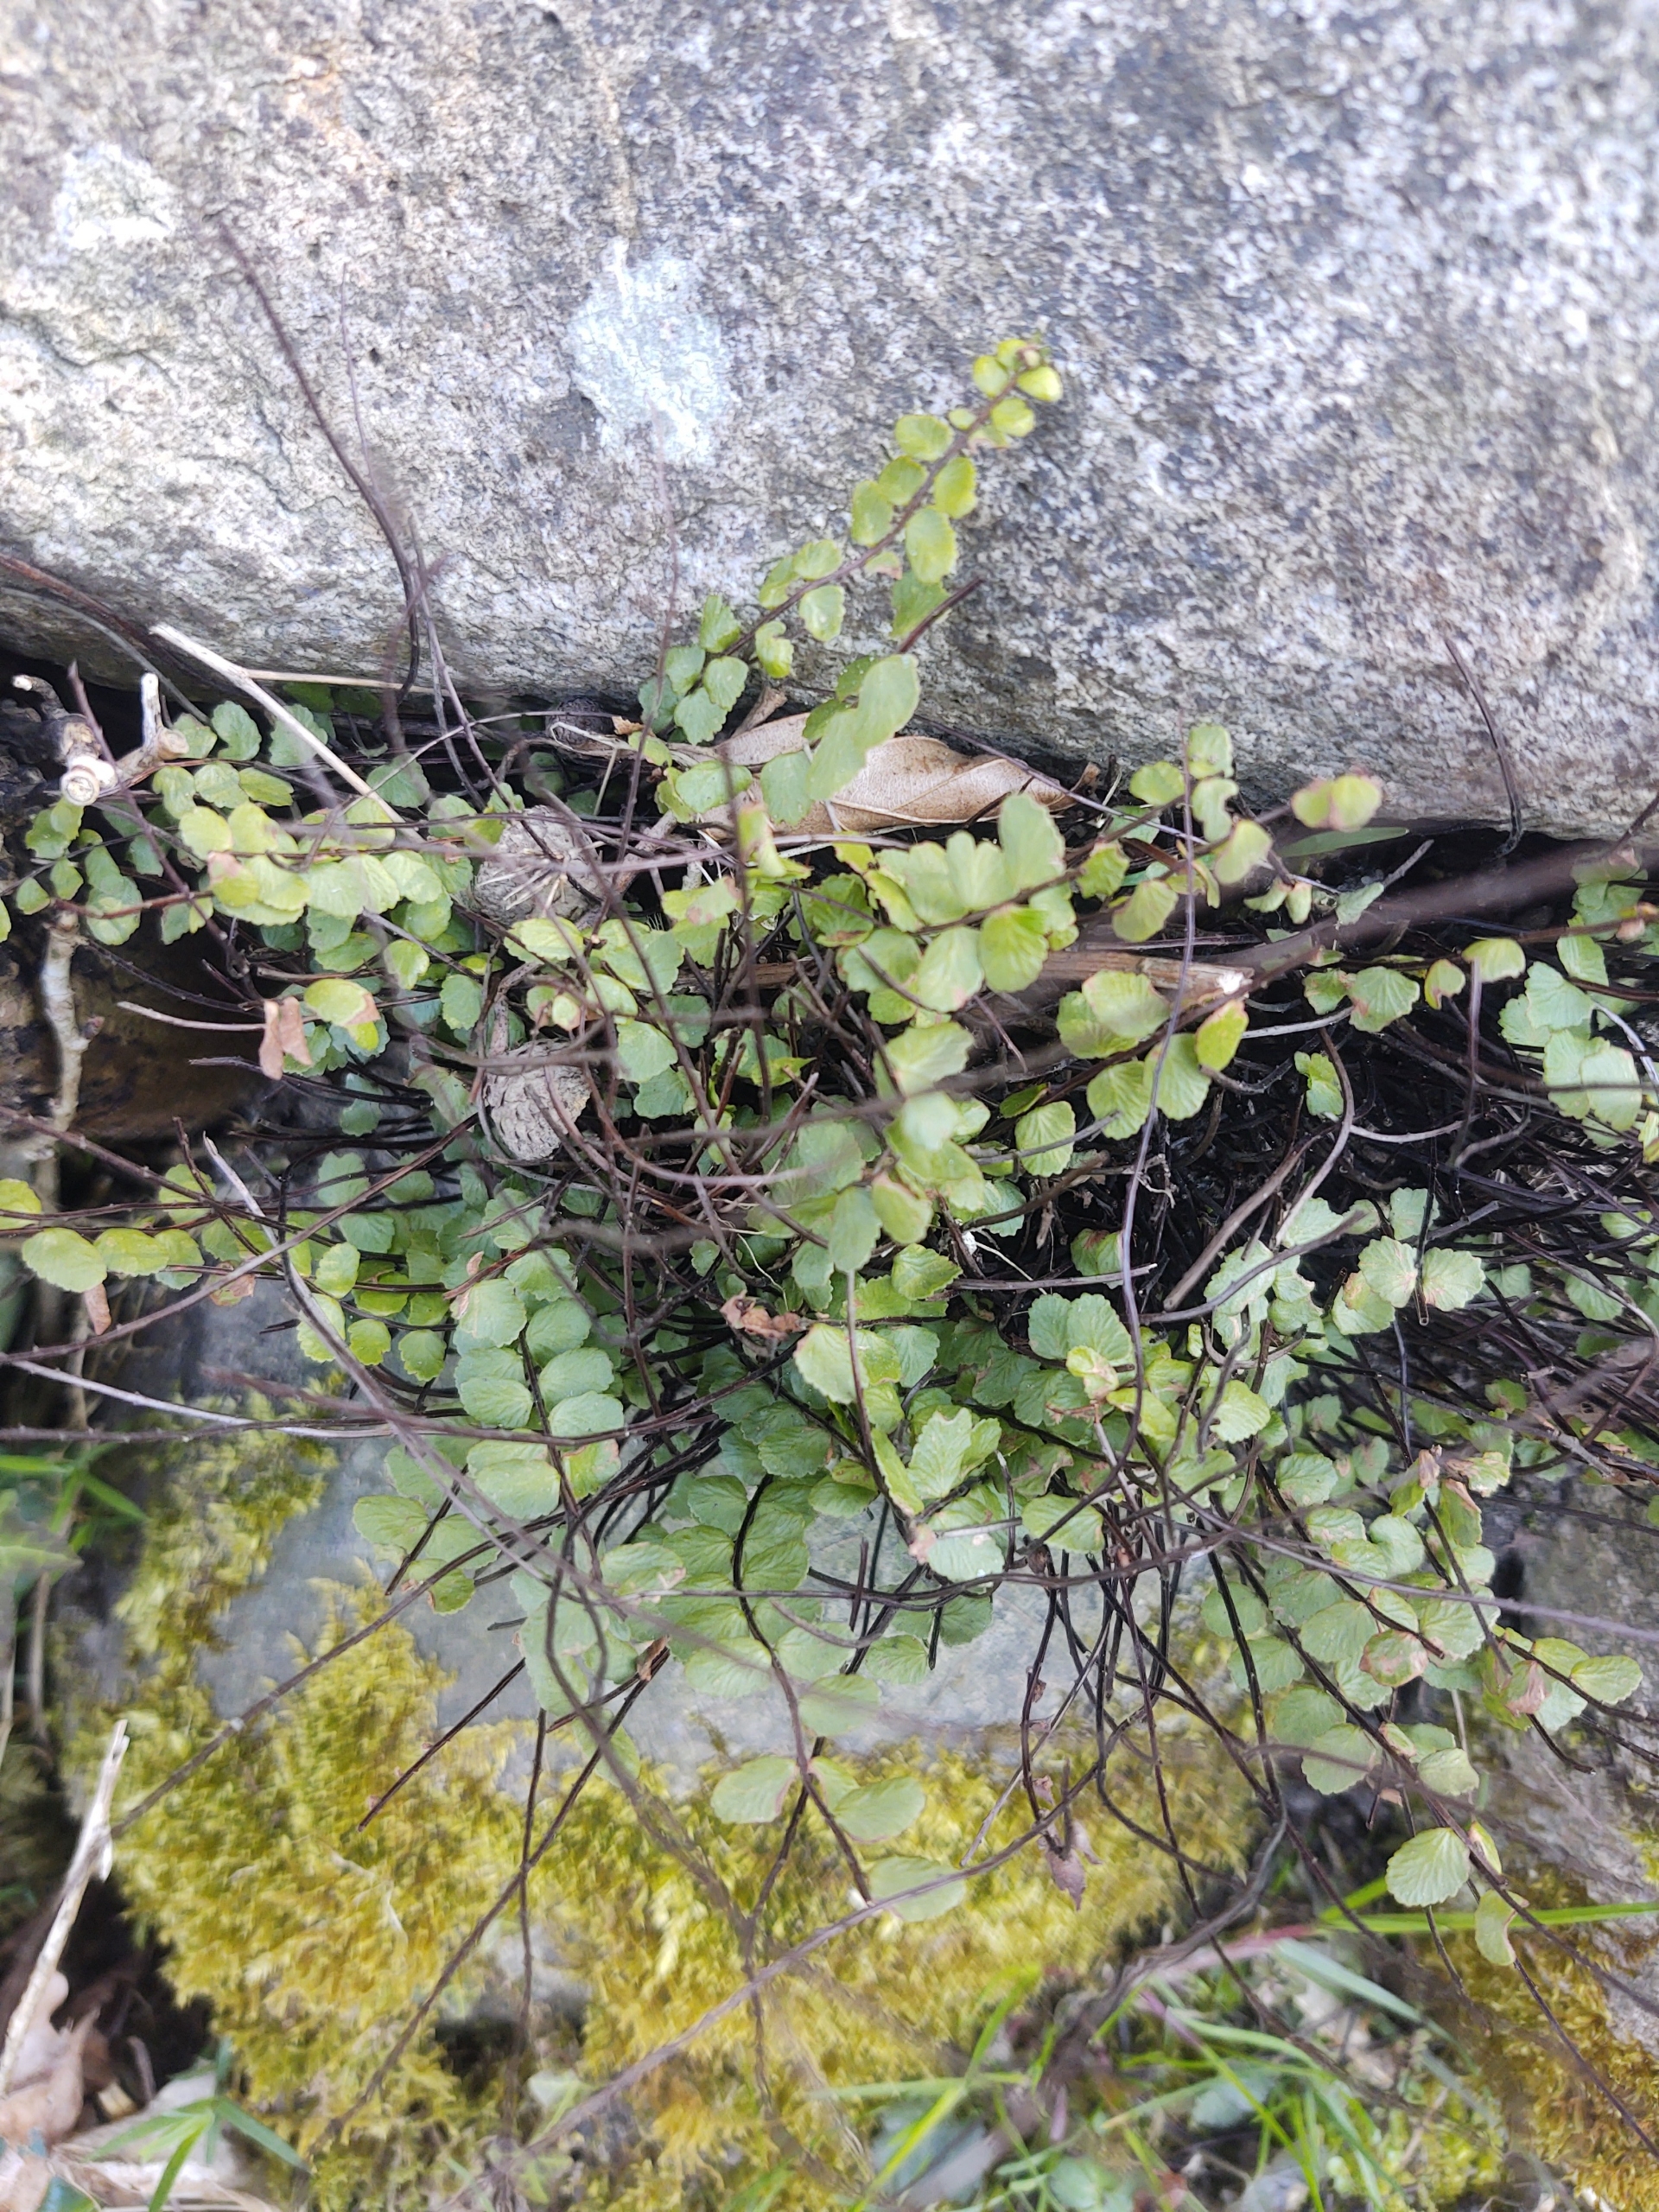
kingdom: Plantae
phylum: Tracheophyta
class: Polypodiopsida
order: Polypodiales
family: Aspleniaceae
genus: Asplenium
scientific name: Asplenium quadrivalens
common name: Kalk-radeløv
